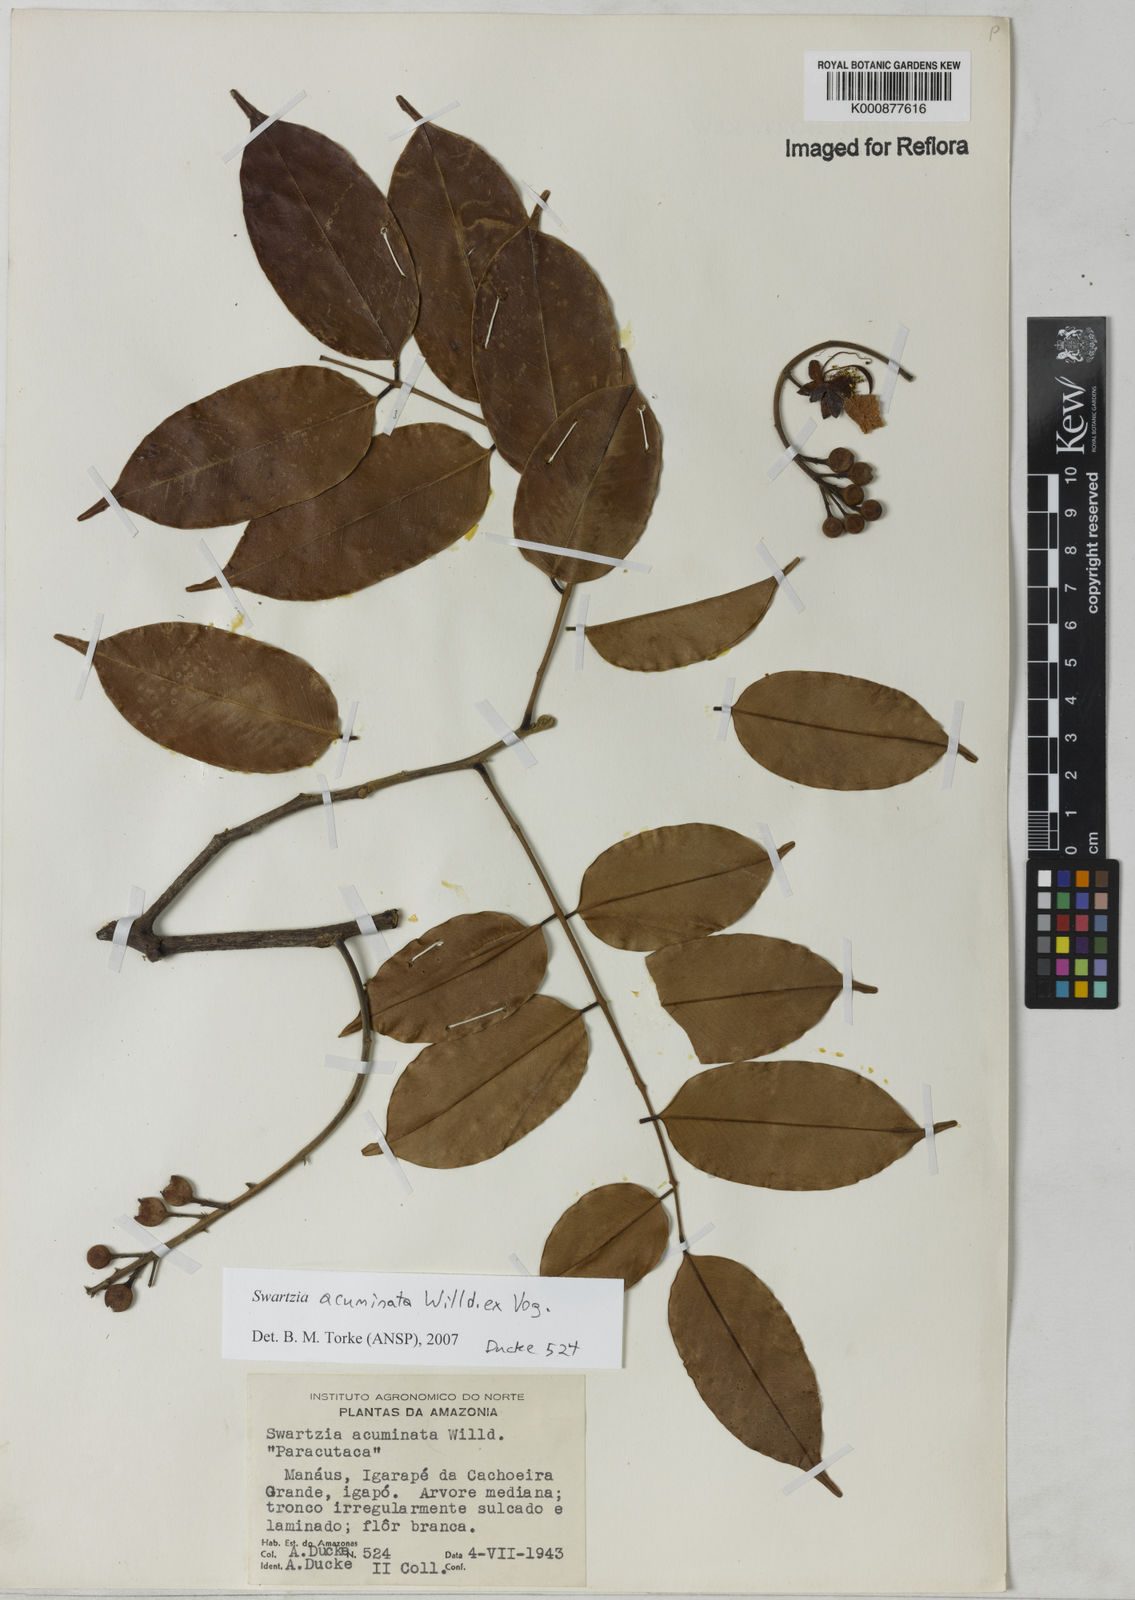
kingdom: Plantae
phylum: Tracheophyta
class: Magnoliopsida
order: Fabales
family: Fabaceae
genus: Swartzia
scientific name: Swartzia acuminata
